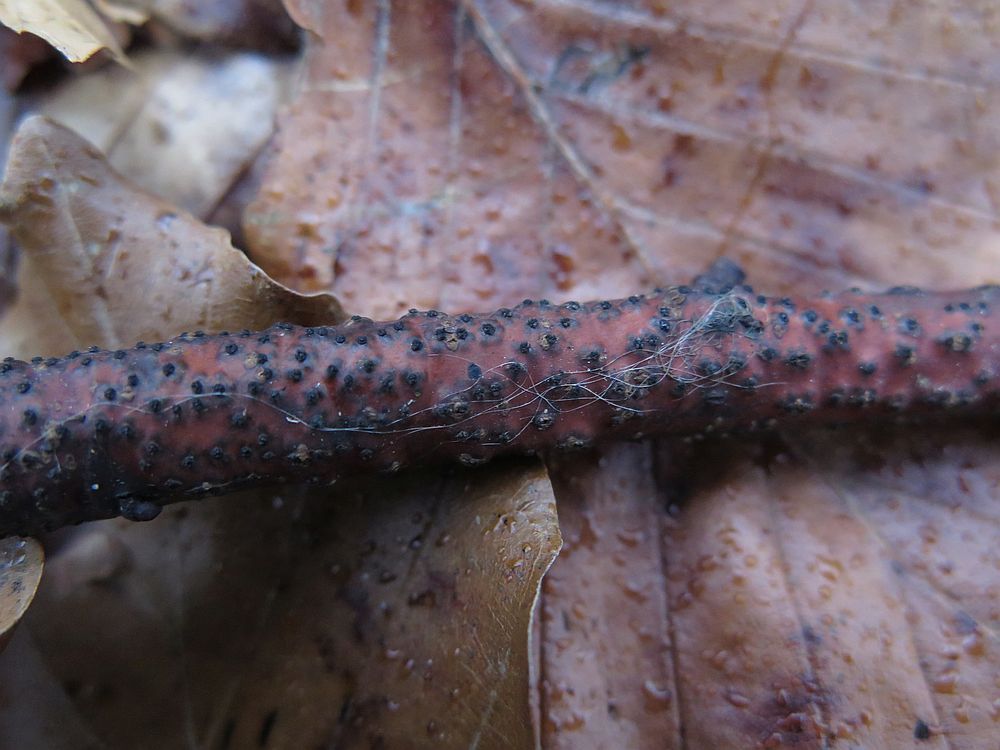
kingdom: Fungi
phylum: Ascomycota
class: Sordariomycetes
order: Xylariales
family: Diatrypaceae
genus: Eutypella
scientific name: Eutypella quaternata
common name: bøge-korsprik
